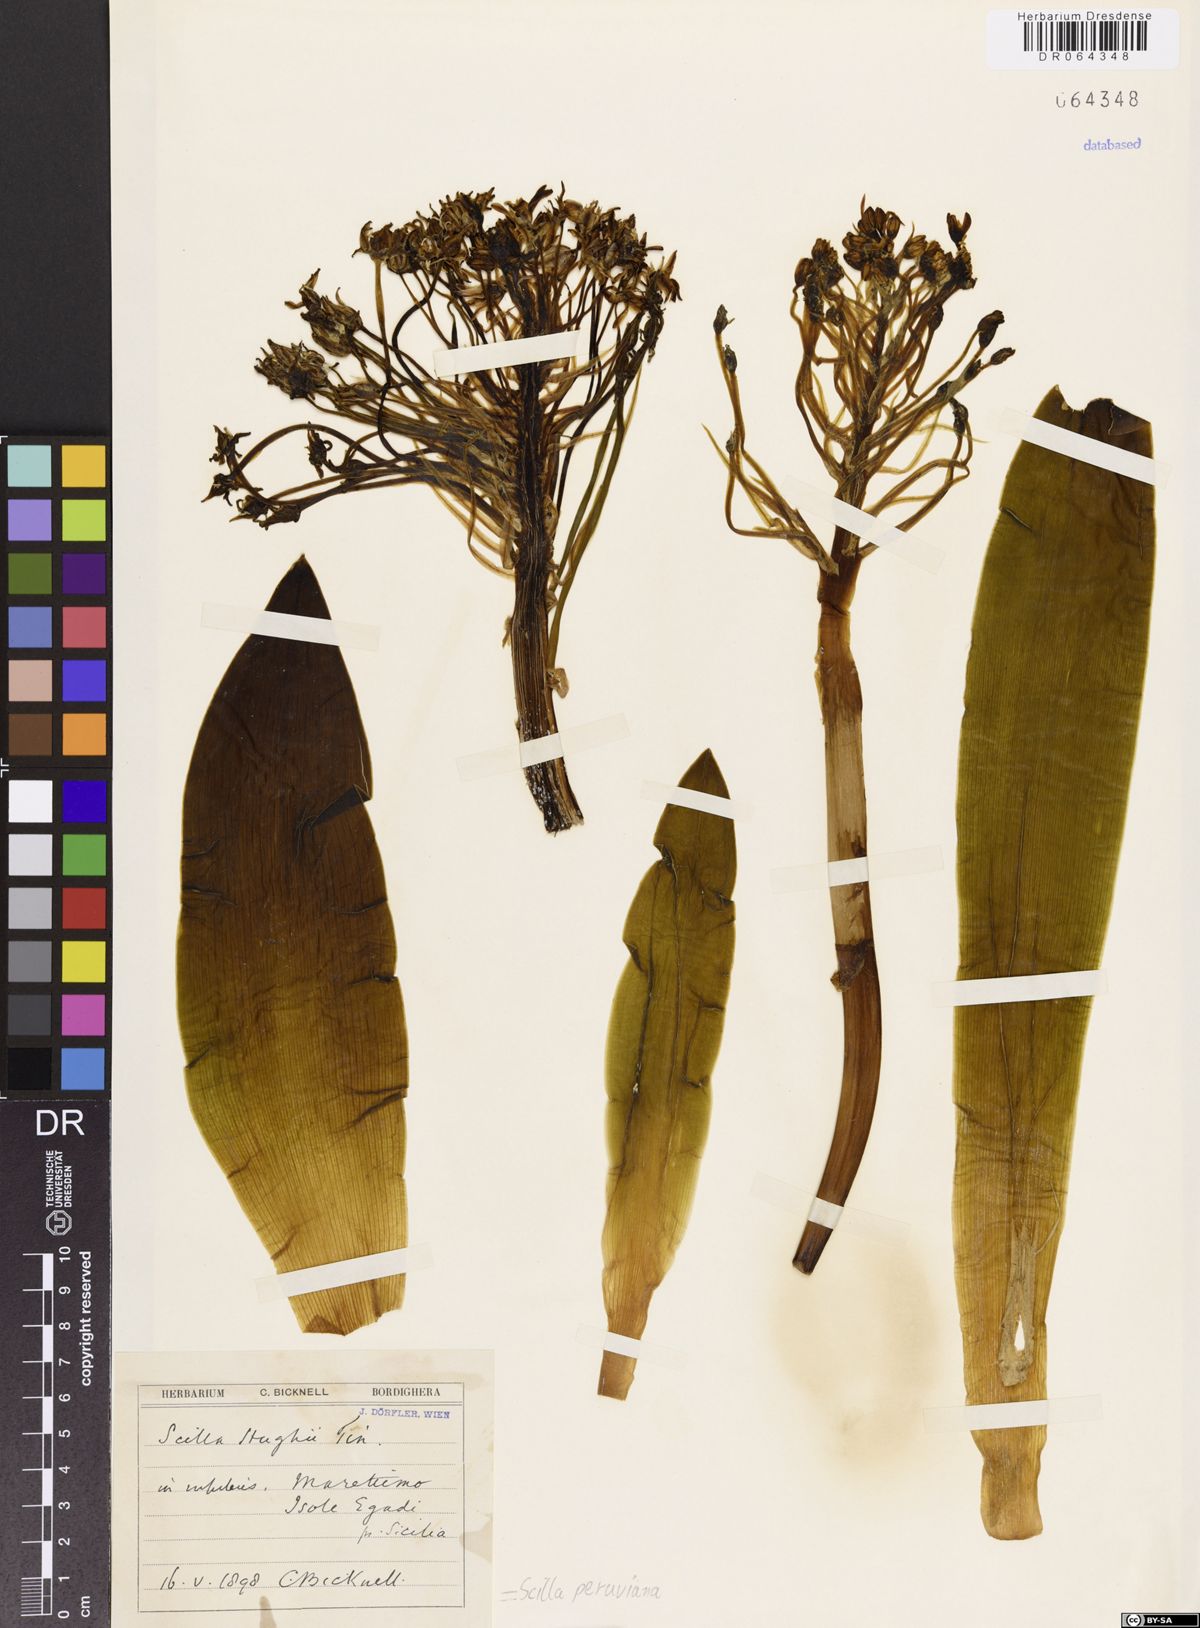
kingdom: Plantae
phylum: Tracheophyta
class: Liliopsida
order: Asparagales
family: Asparagaceae
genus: Scilla
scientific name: Scilla peruviana
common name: Portuguese squill
